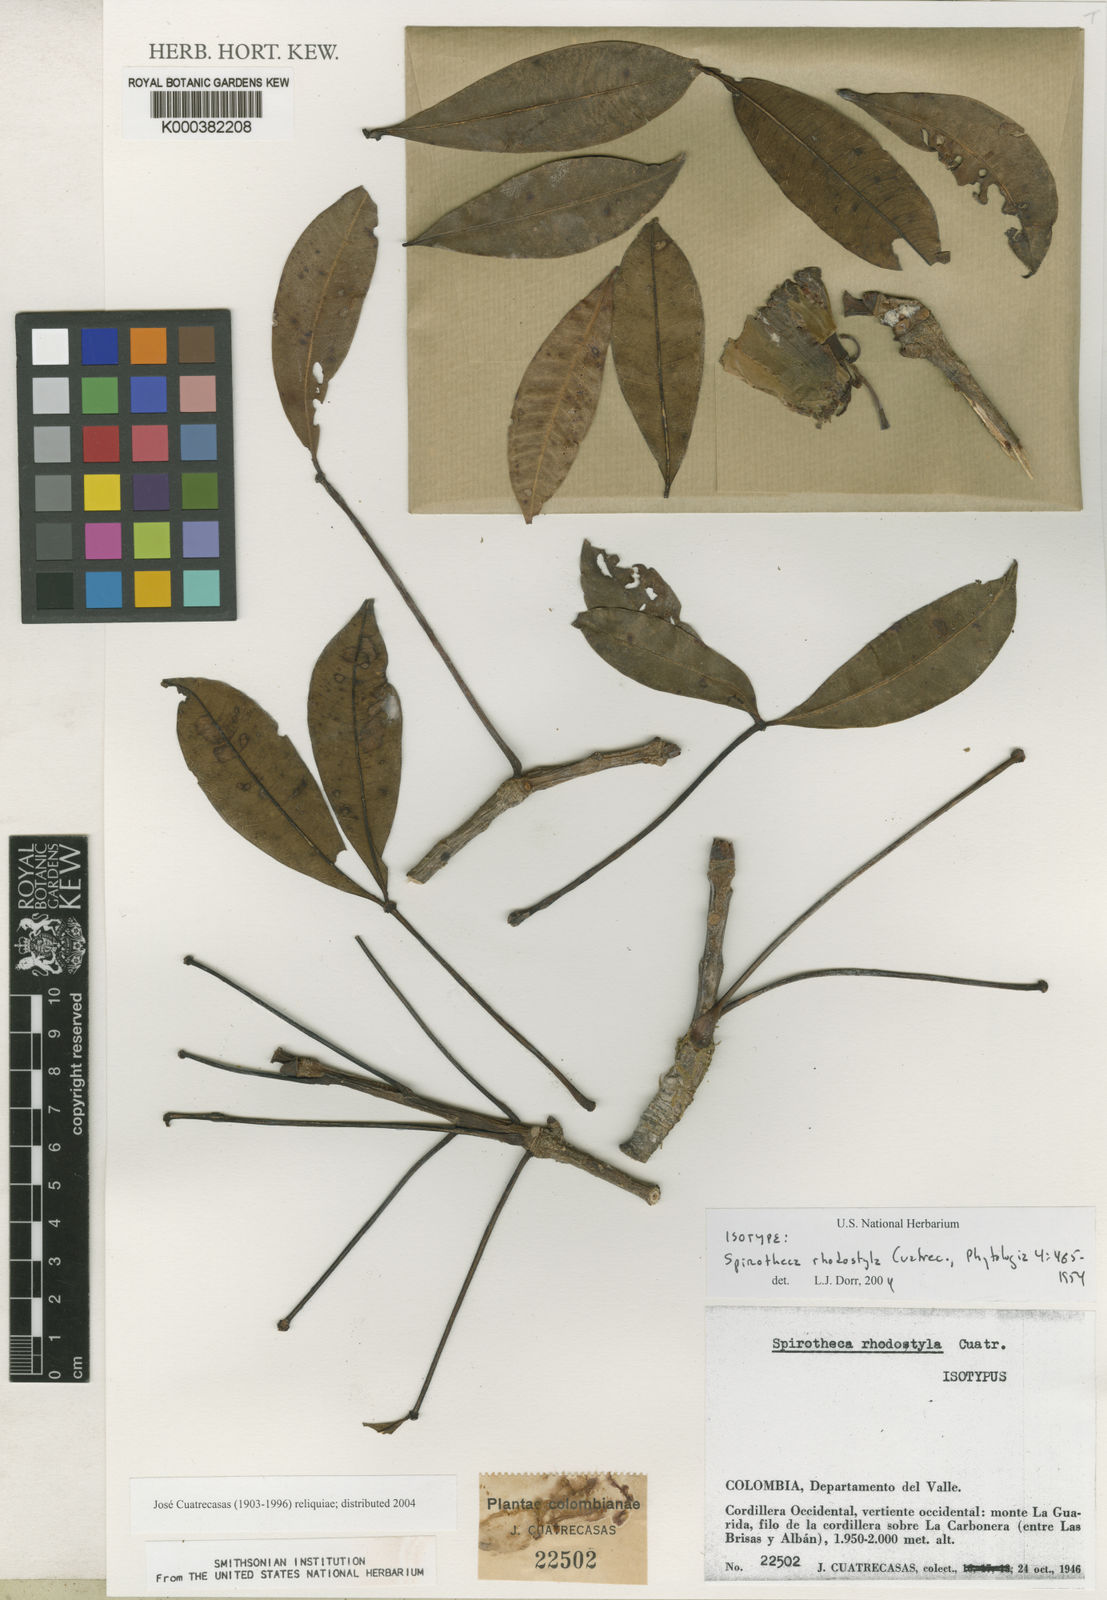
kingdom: Plantae
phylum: Tracheophyta
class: Magnoliopsida
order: Malvales
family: Malvaceae
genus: Spirotheca
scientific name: Spirotheca rhodostyla
